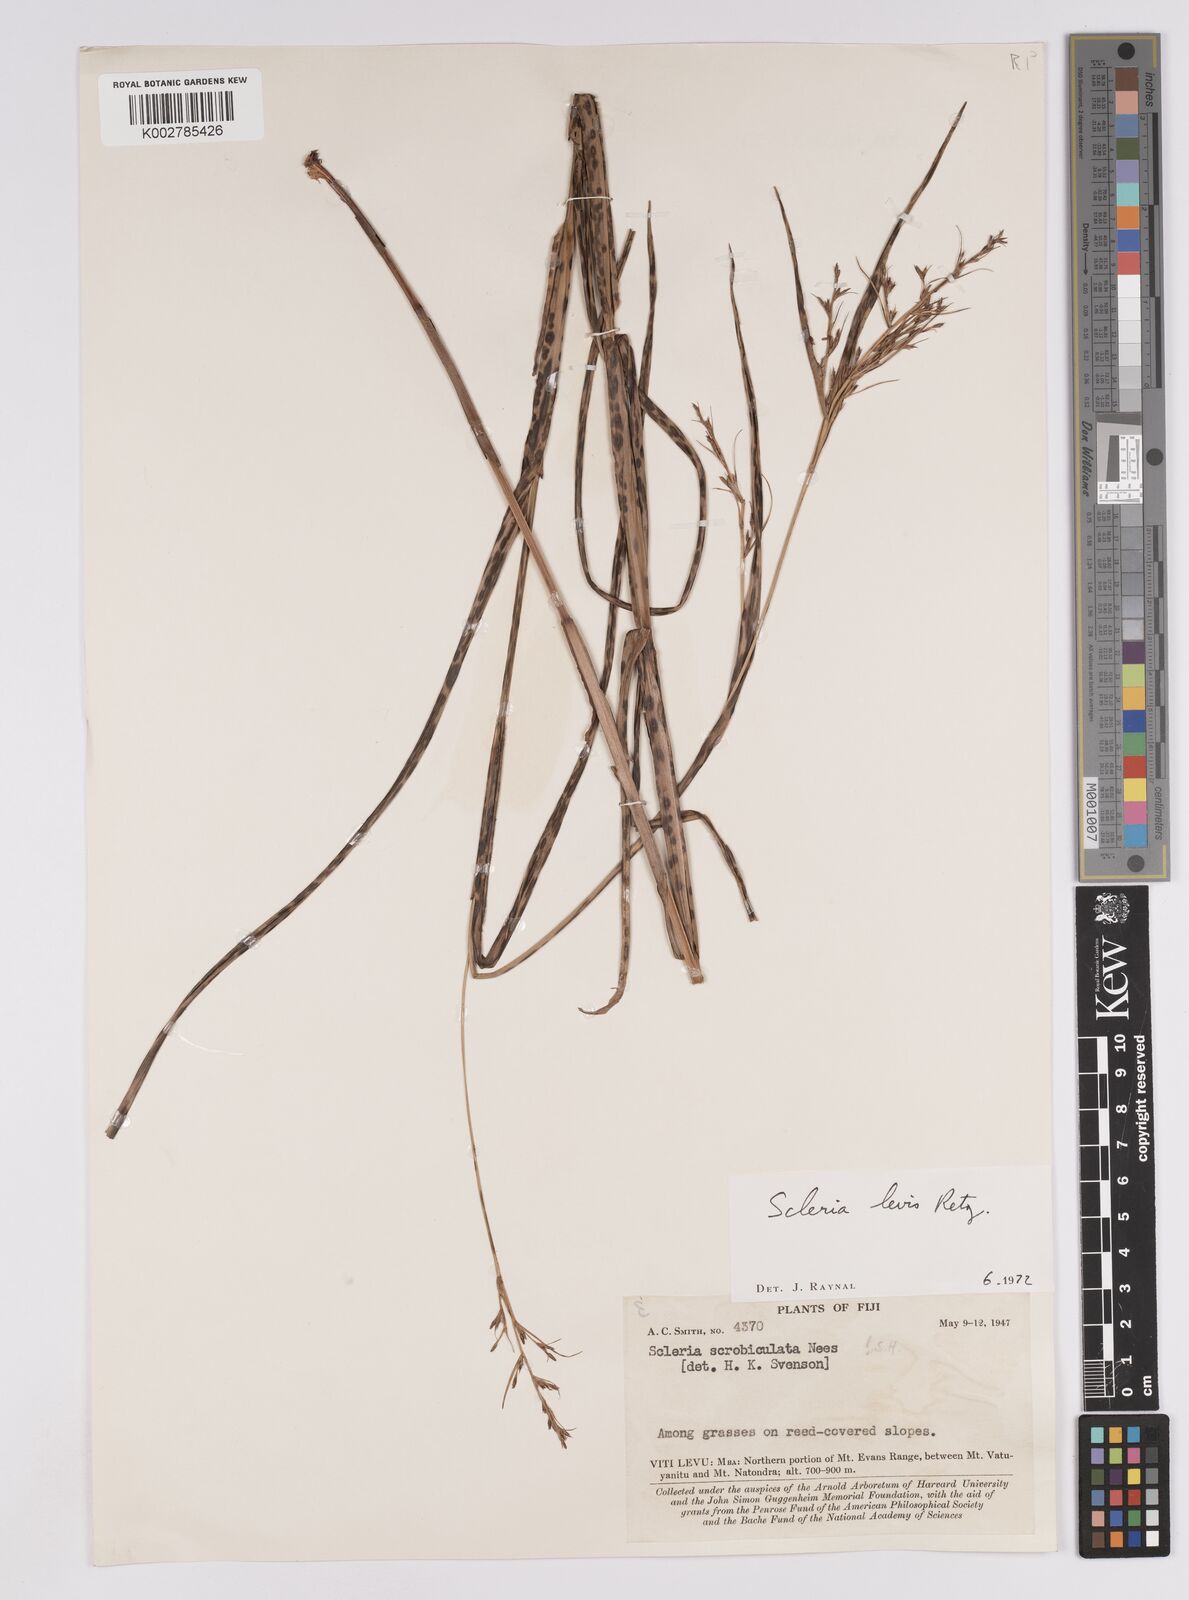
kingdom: Plantae
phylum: Tracheophyta
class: Liliopsida
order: Poales
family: Cyperaceae
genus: Scleria
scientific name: Scleria levis
